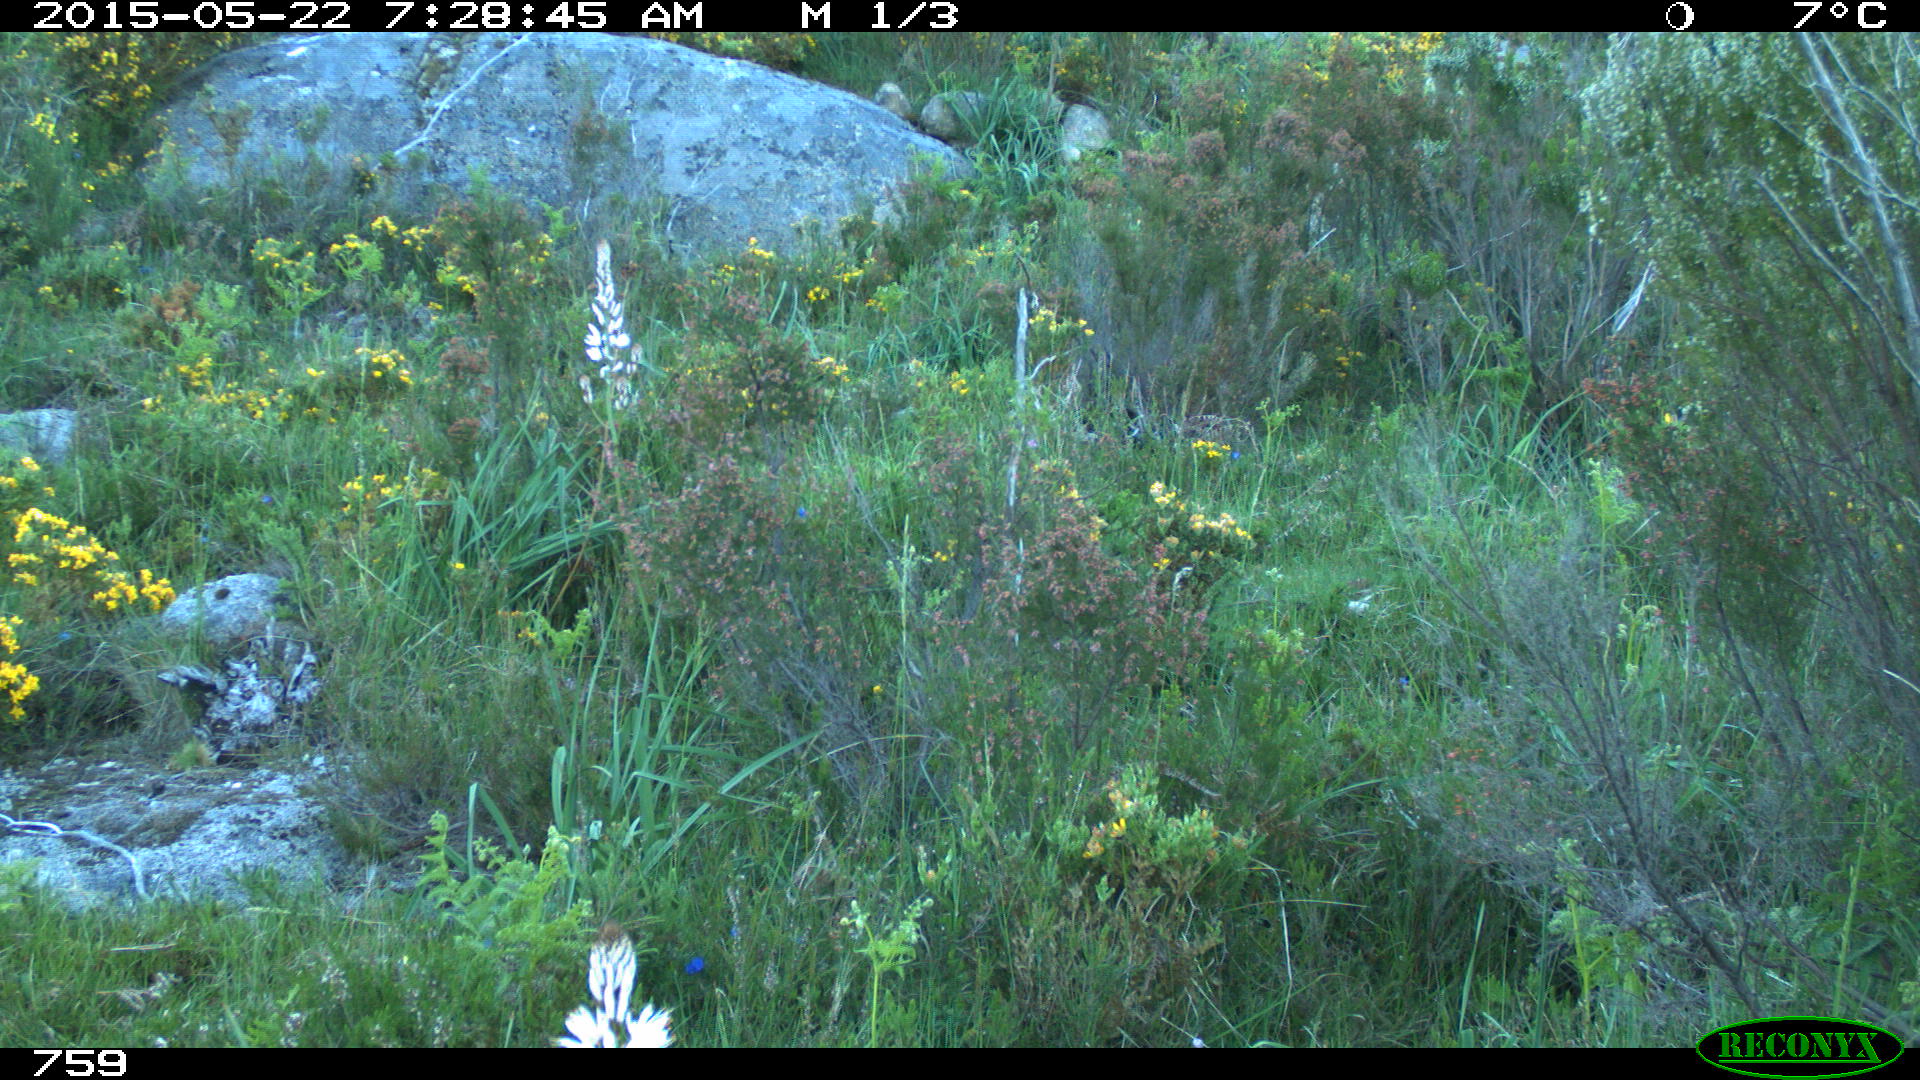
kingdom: Animalia
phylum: Chordata
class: Mammalia
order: Artiodactyla
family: Cervidae
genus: Capreolus
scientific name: Capreolus capreolus
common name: Western roe deer
